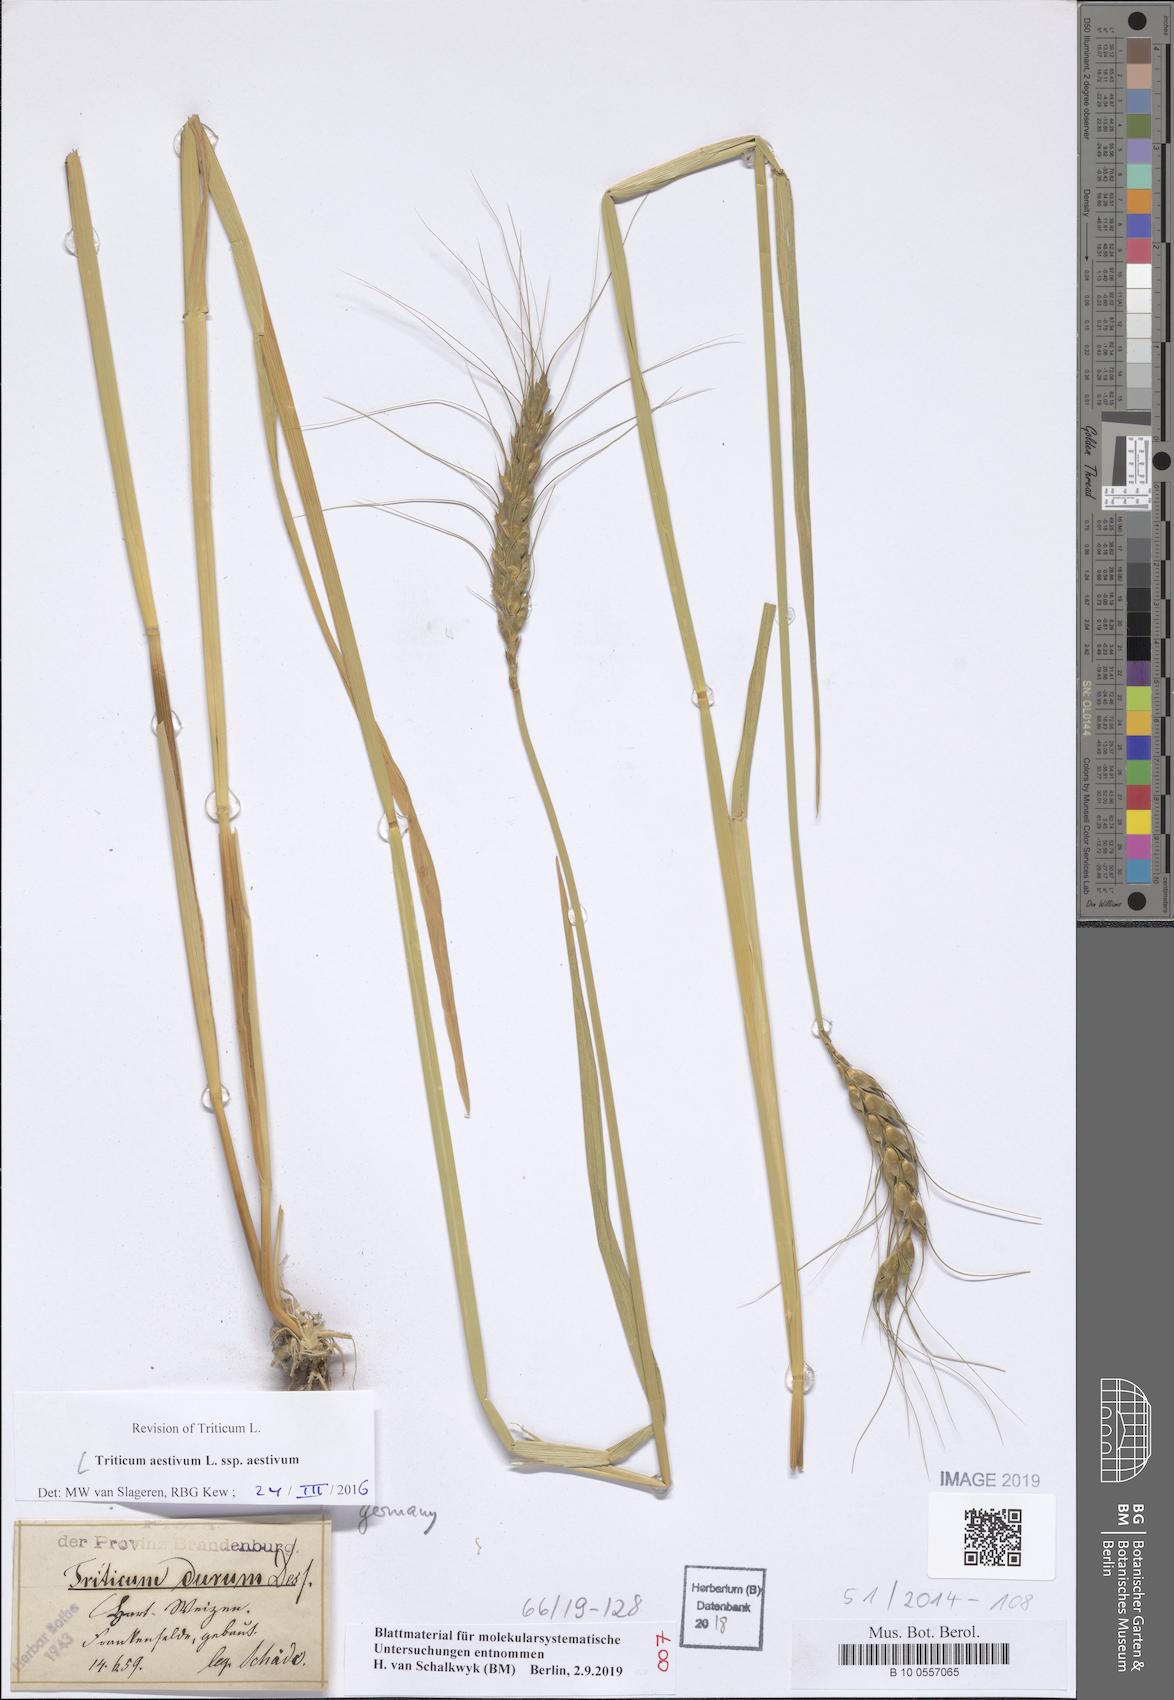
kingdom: Plantae
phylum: Tracheophyta
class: Liliopsida
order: Poales
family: Poaceae
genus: Triticum
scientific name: Triticum aestivum
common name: Common wheat
